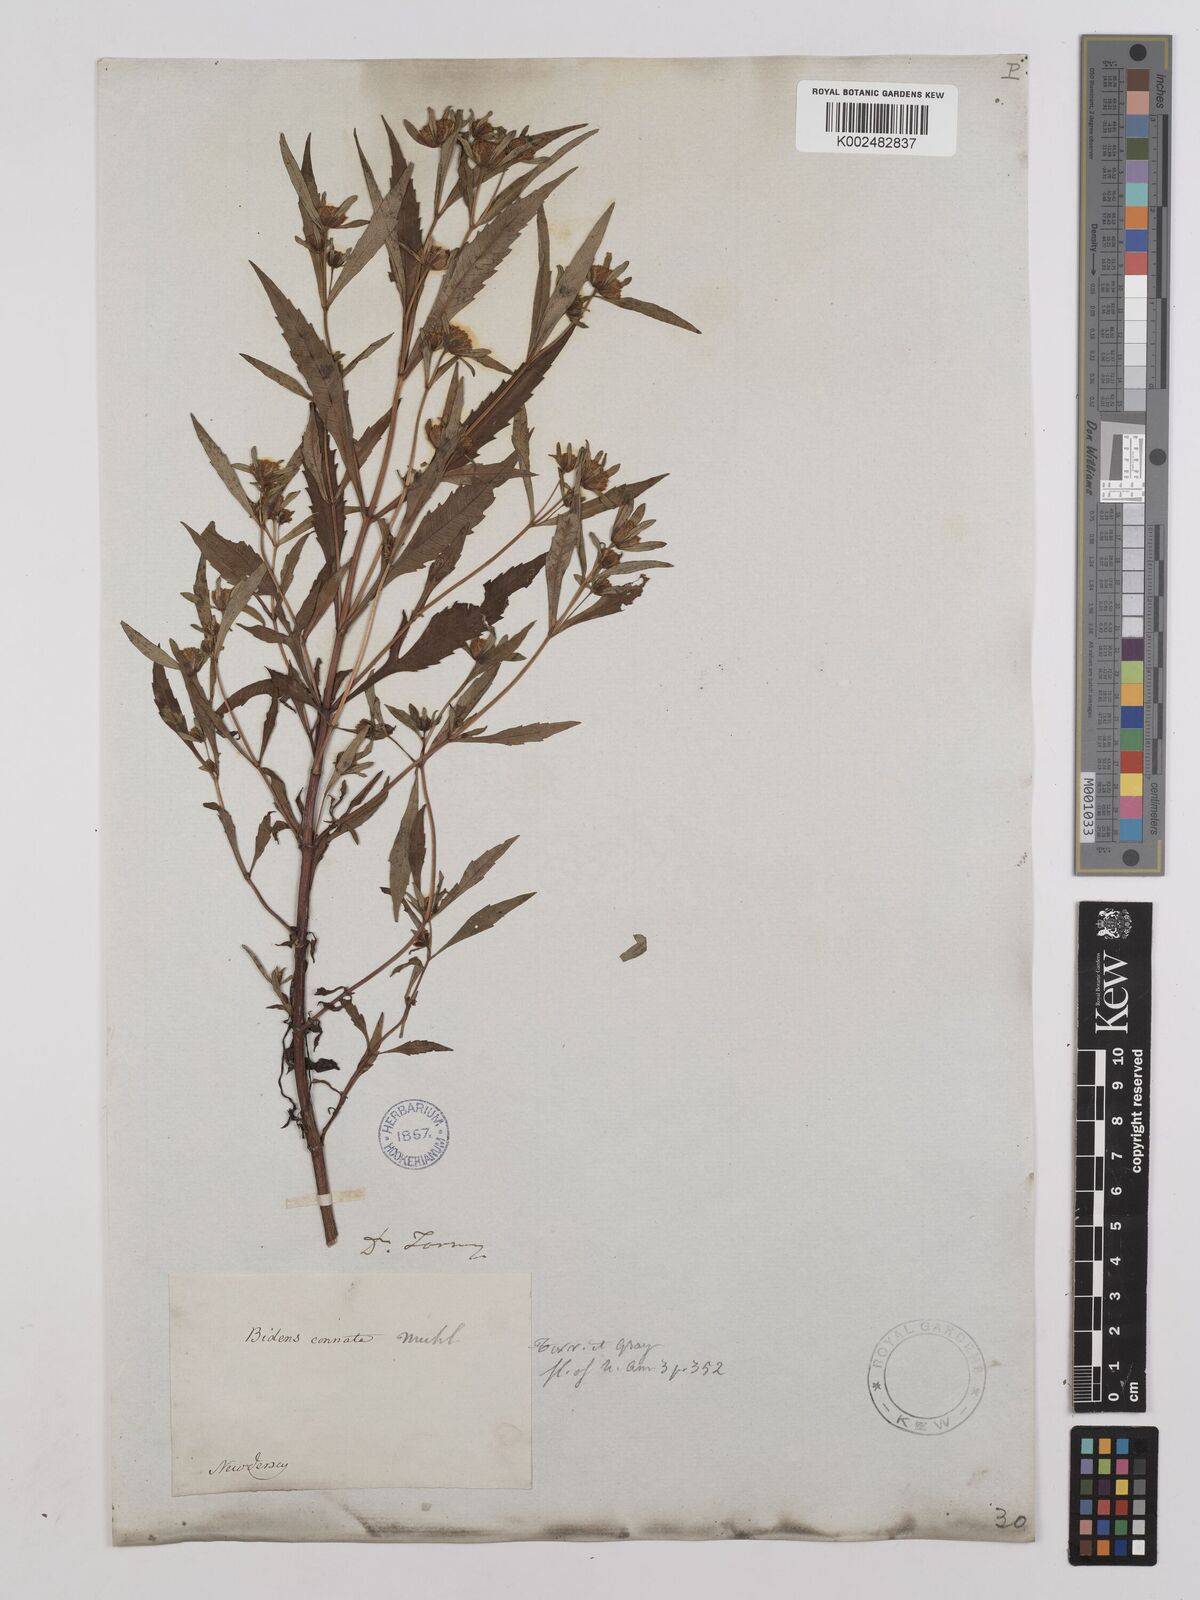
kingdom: Plantae
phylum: Tracheophyta
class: Magnoliopsida
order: Asterales
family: Asteraceae
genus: Bidens
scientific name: Bidens connata
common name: London bur-marigold
